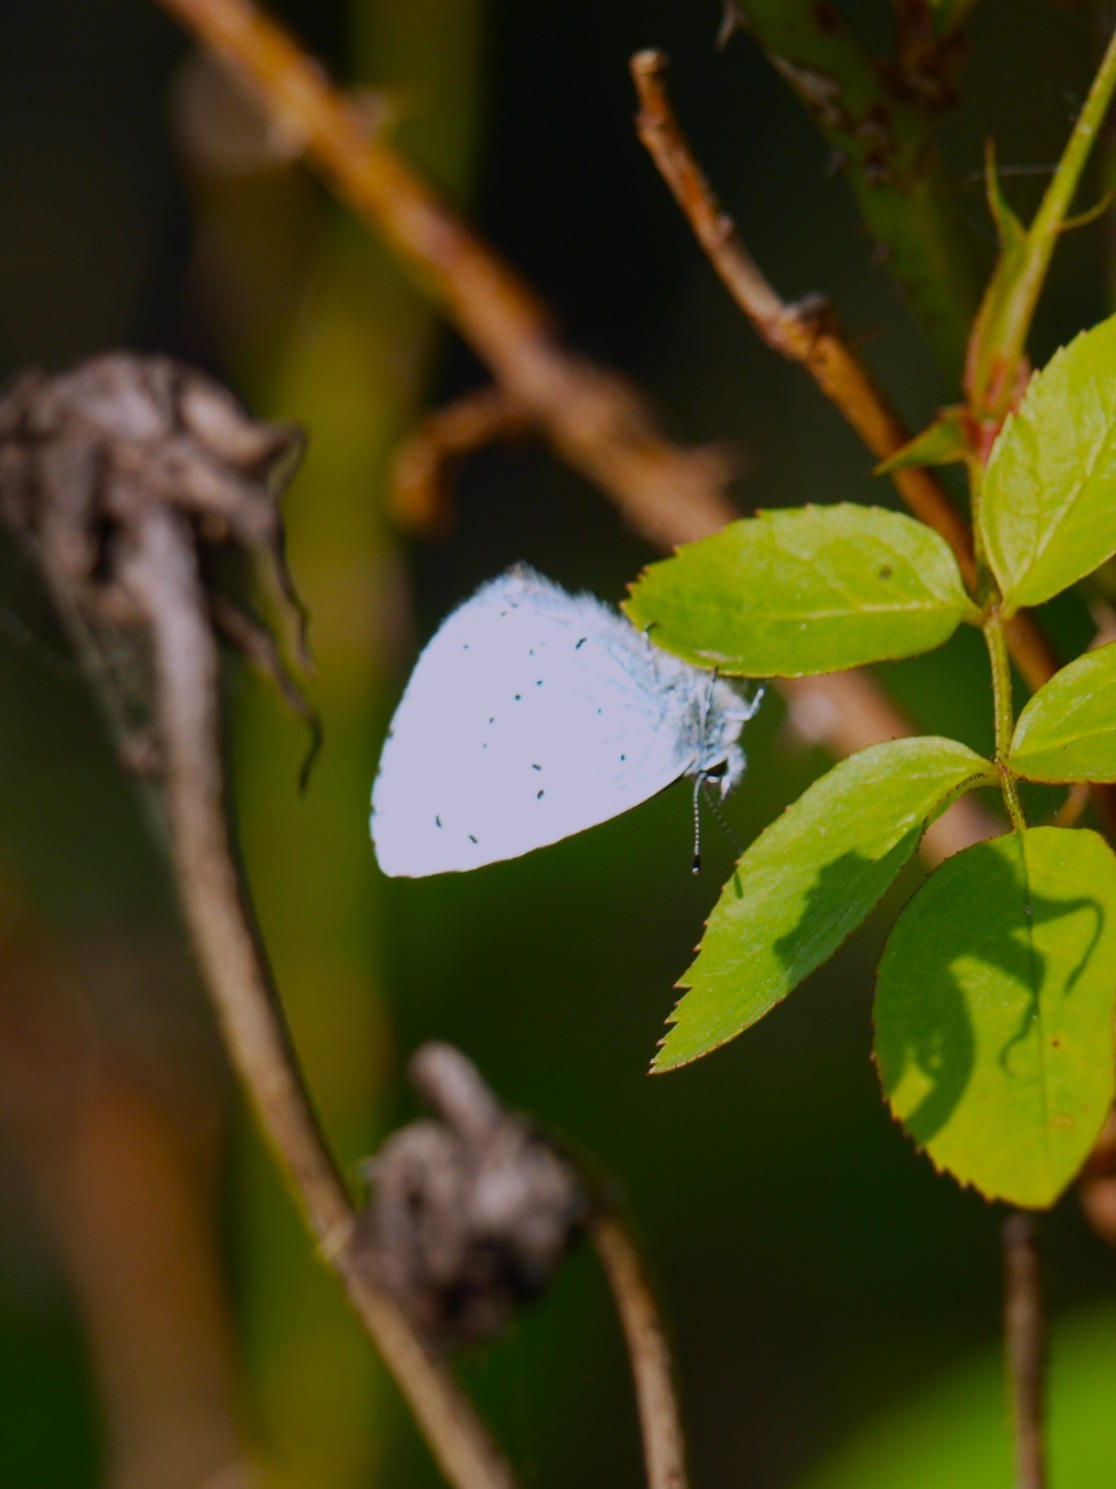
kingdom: Animalia
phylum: Arthropoda
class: Insecta
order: Lepidoptera
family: Lycaenidae
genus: Celastrina
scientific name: Celastrina argiolus
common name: Skovblåfugl
